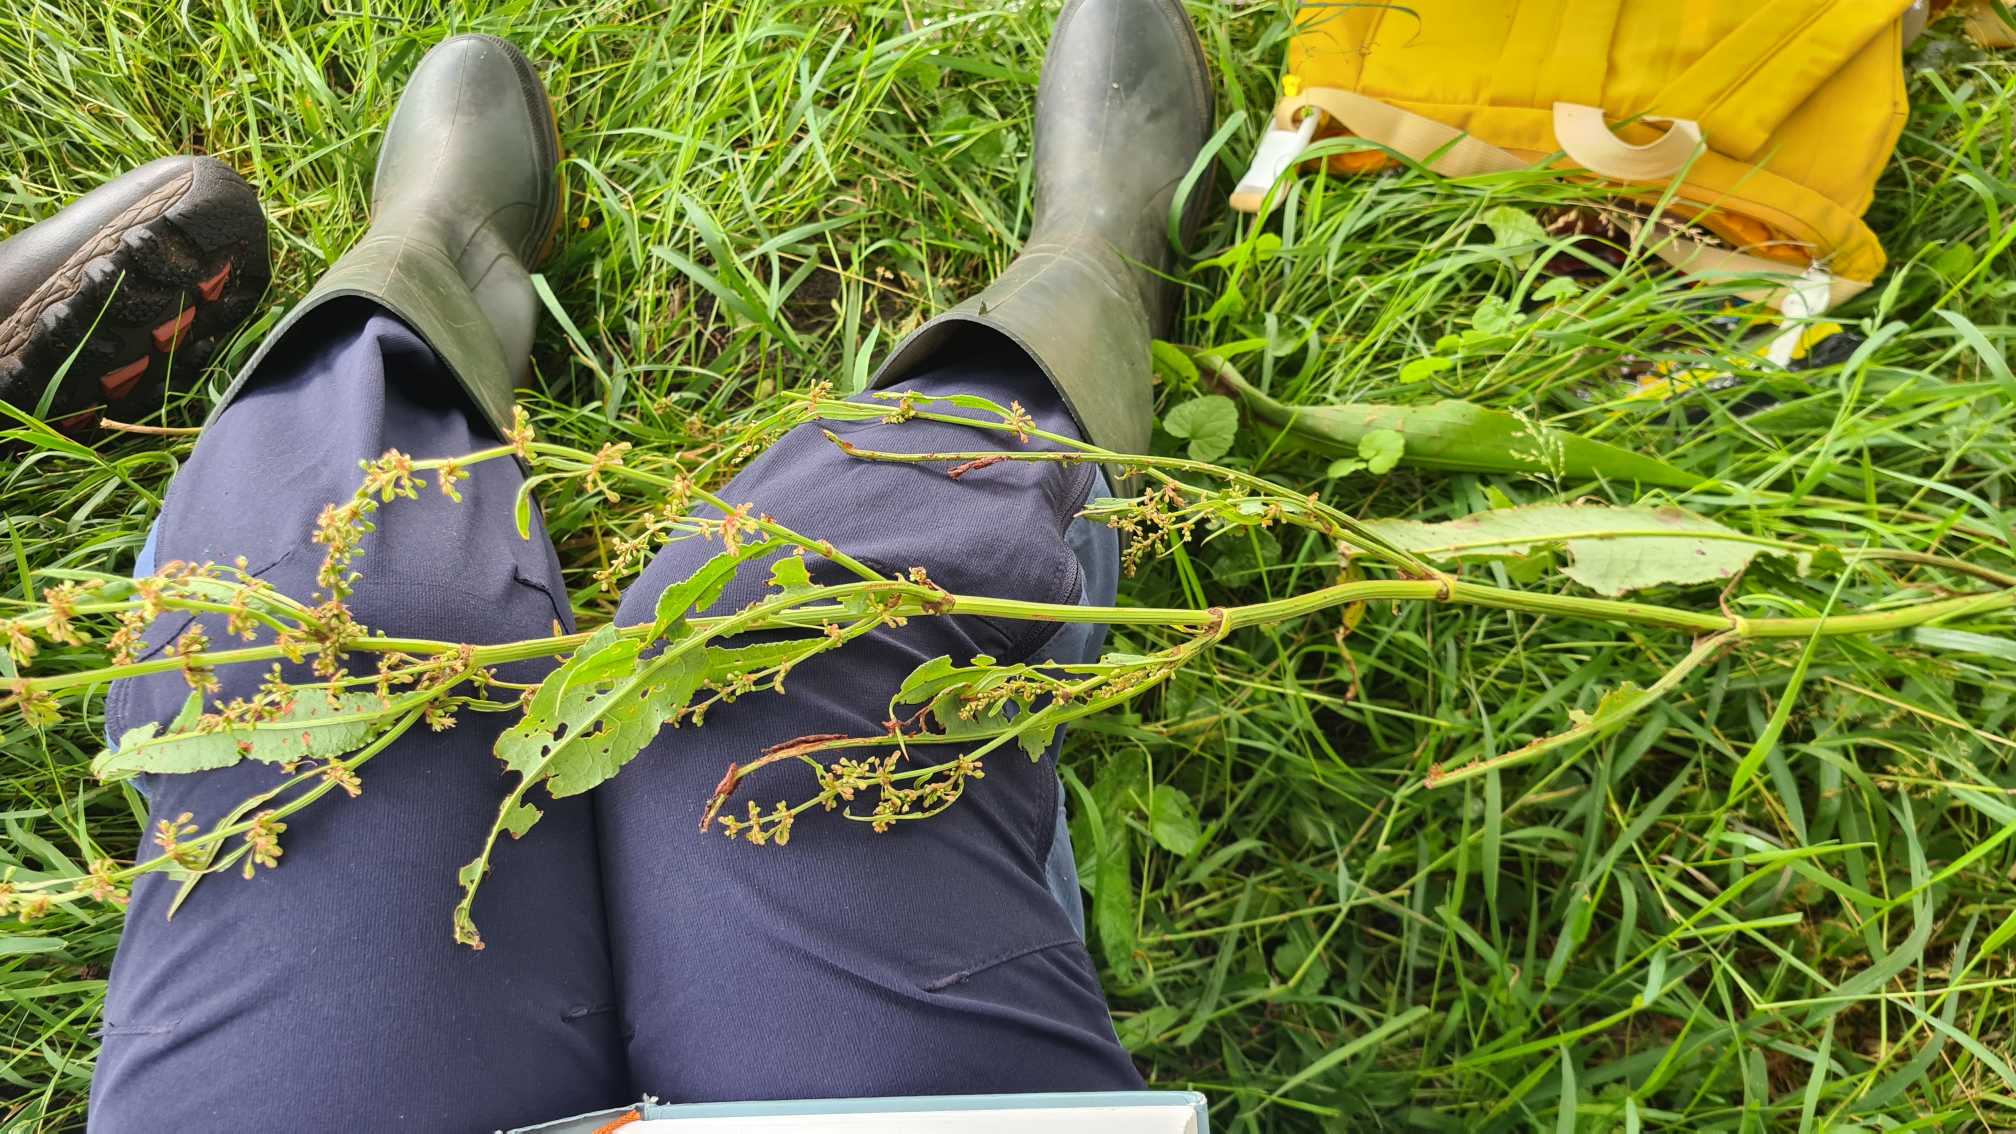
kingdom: Plantae
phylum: Tracheophyta
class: Magnoliopsida
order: Caryophyllales
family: Polygonaceae
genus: Rumex
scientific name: Rumex hydrolapathum
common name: Vand-skræppe
